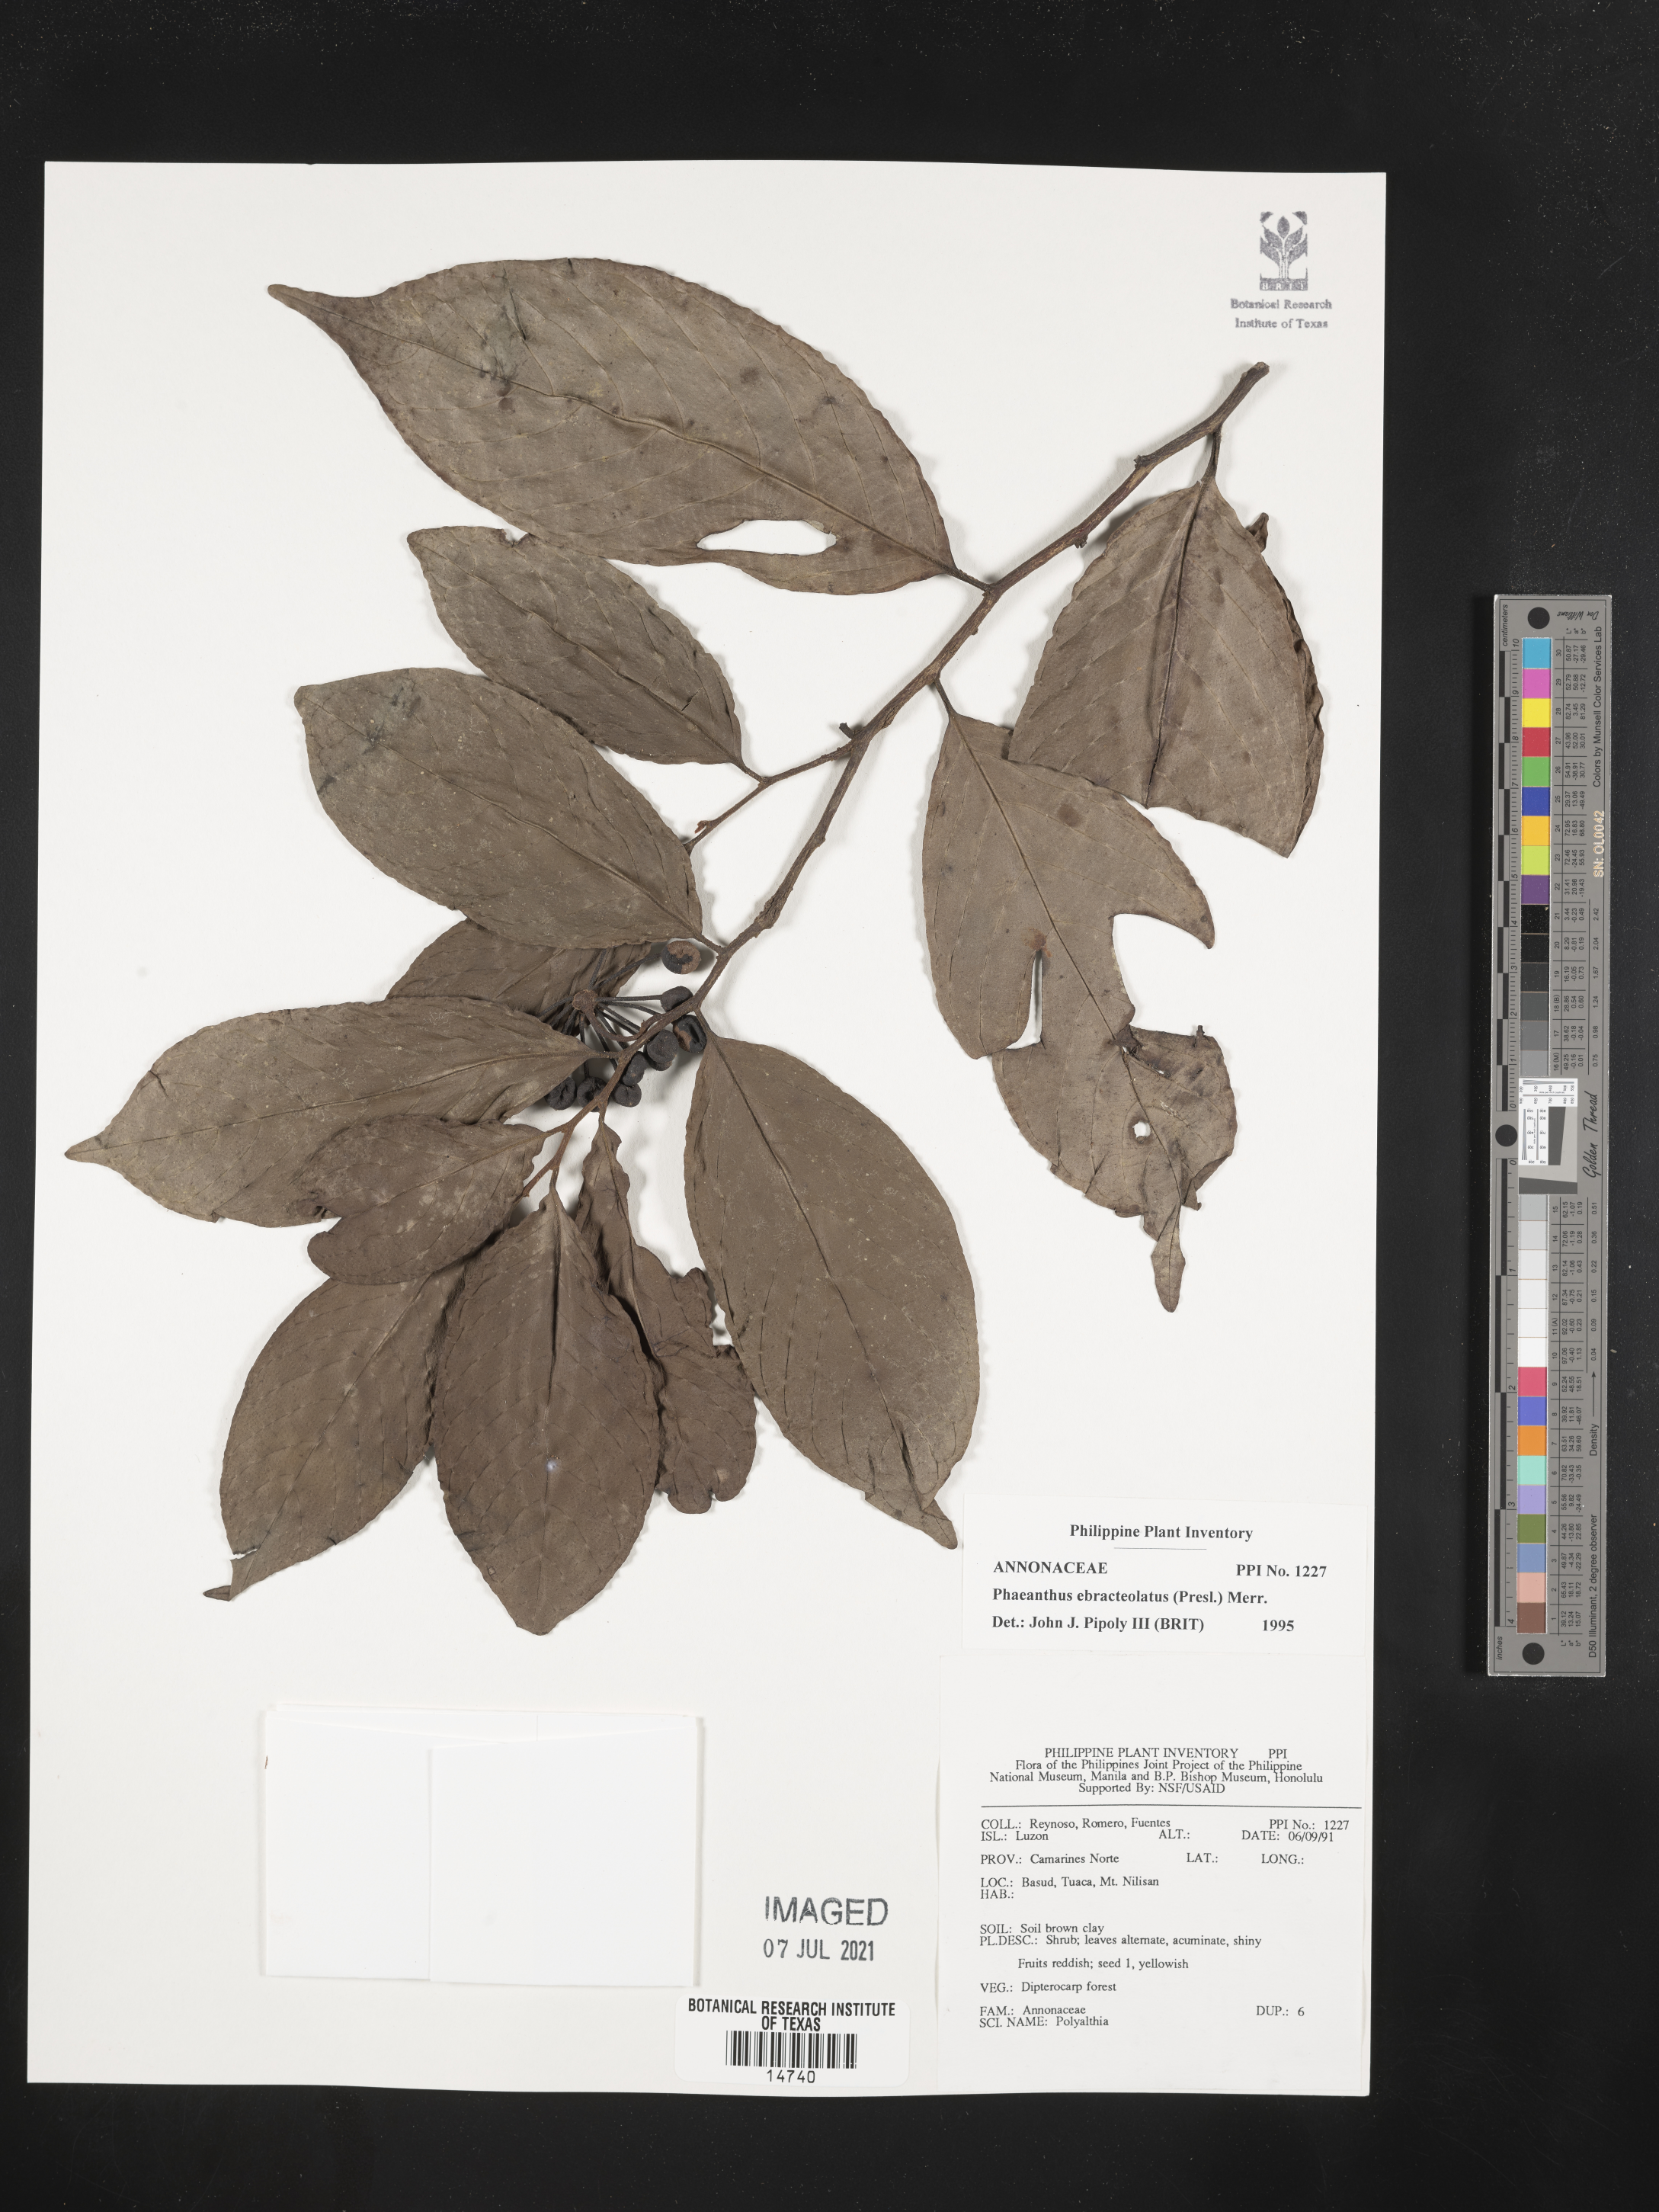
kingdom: Plantae
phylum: Tracheophyta
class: Magnoliopsida
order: Magnoliales
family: Annonaceae
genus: Phaeanthus
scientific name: Phaeanthus ophthalmicus
